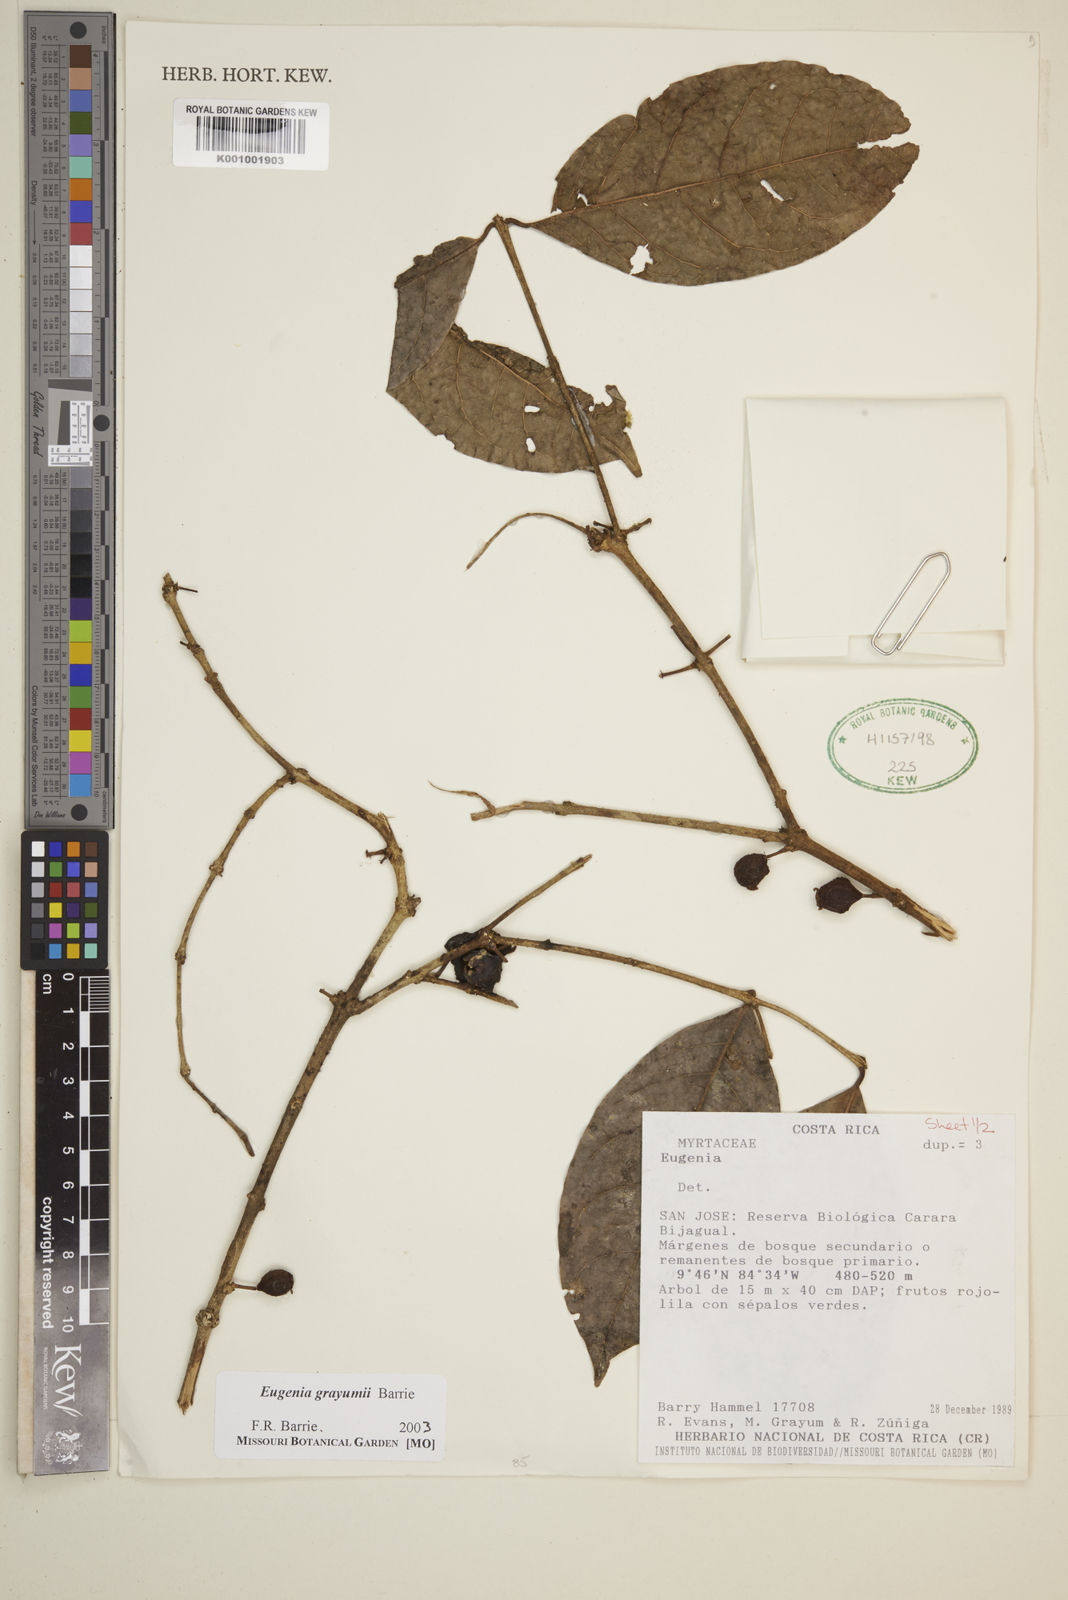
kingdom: Plantae
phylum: Tracheophyta
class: Magnoliopsida
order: Myrtales
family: Myrtaceae
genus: Eugenia
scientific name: Eugenia grayumii
